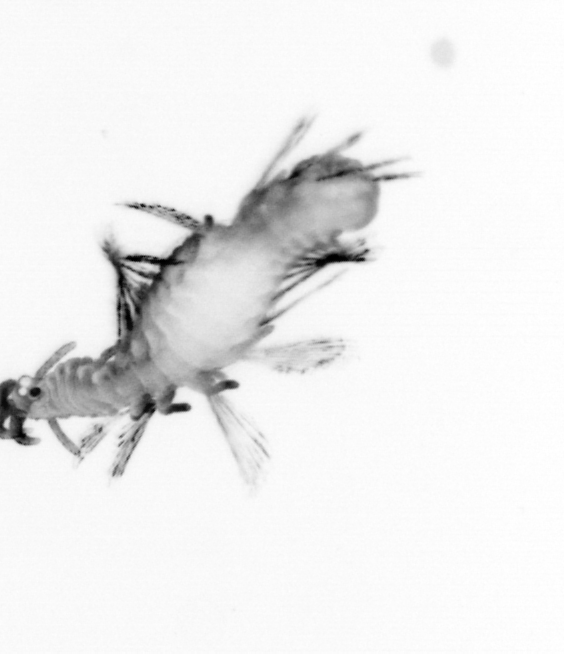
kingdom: Animalia
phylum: Annelida
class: Polychaeta
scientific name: Polychaeta
